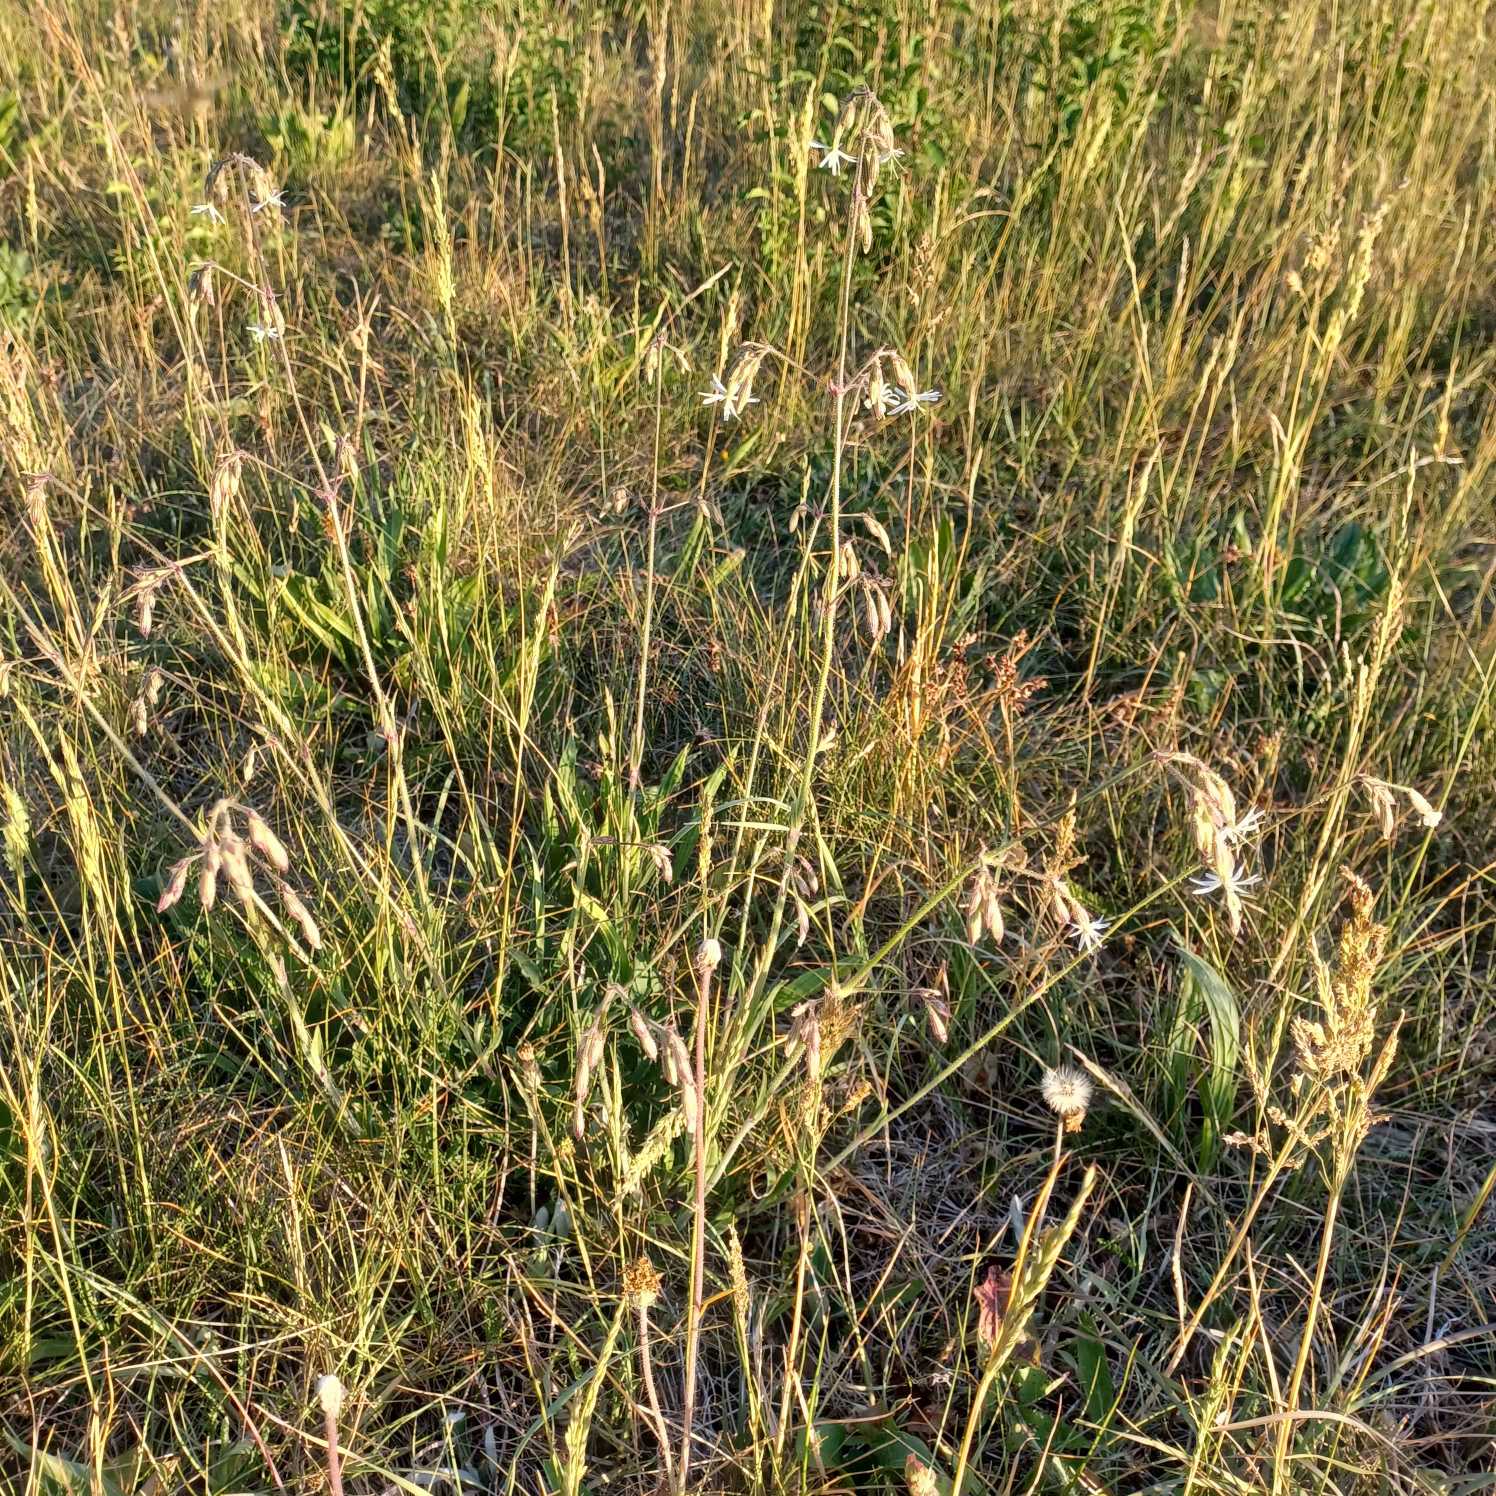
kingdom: Plantae
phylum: Tracheophyta
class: Magnoliopsida
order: Caryophyllales
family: Caryophyllaceae
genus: Silene
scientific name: Silene nutans
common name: Nikkende limurt
